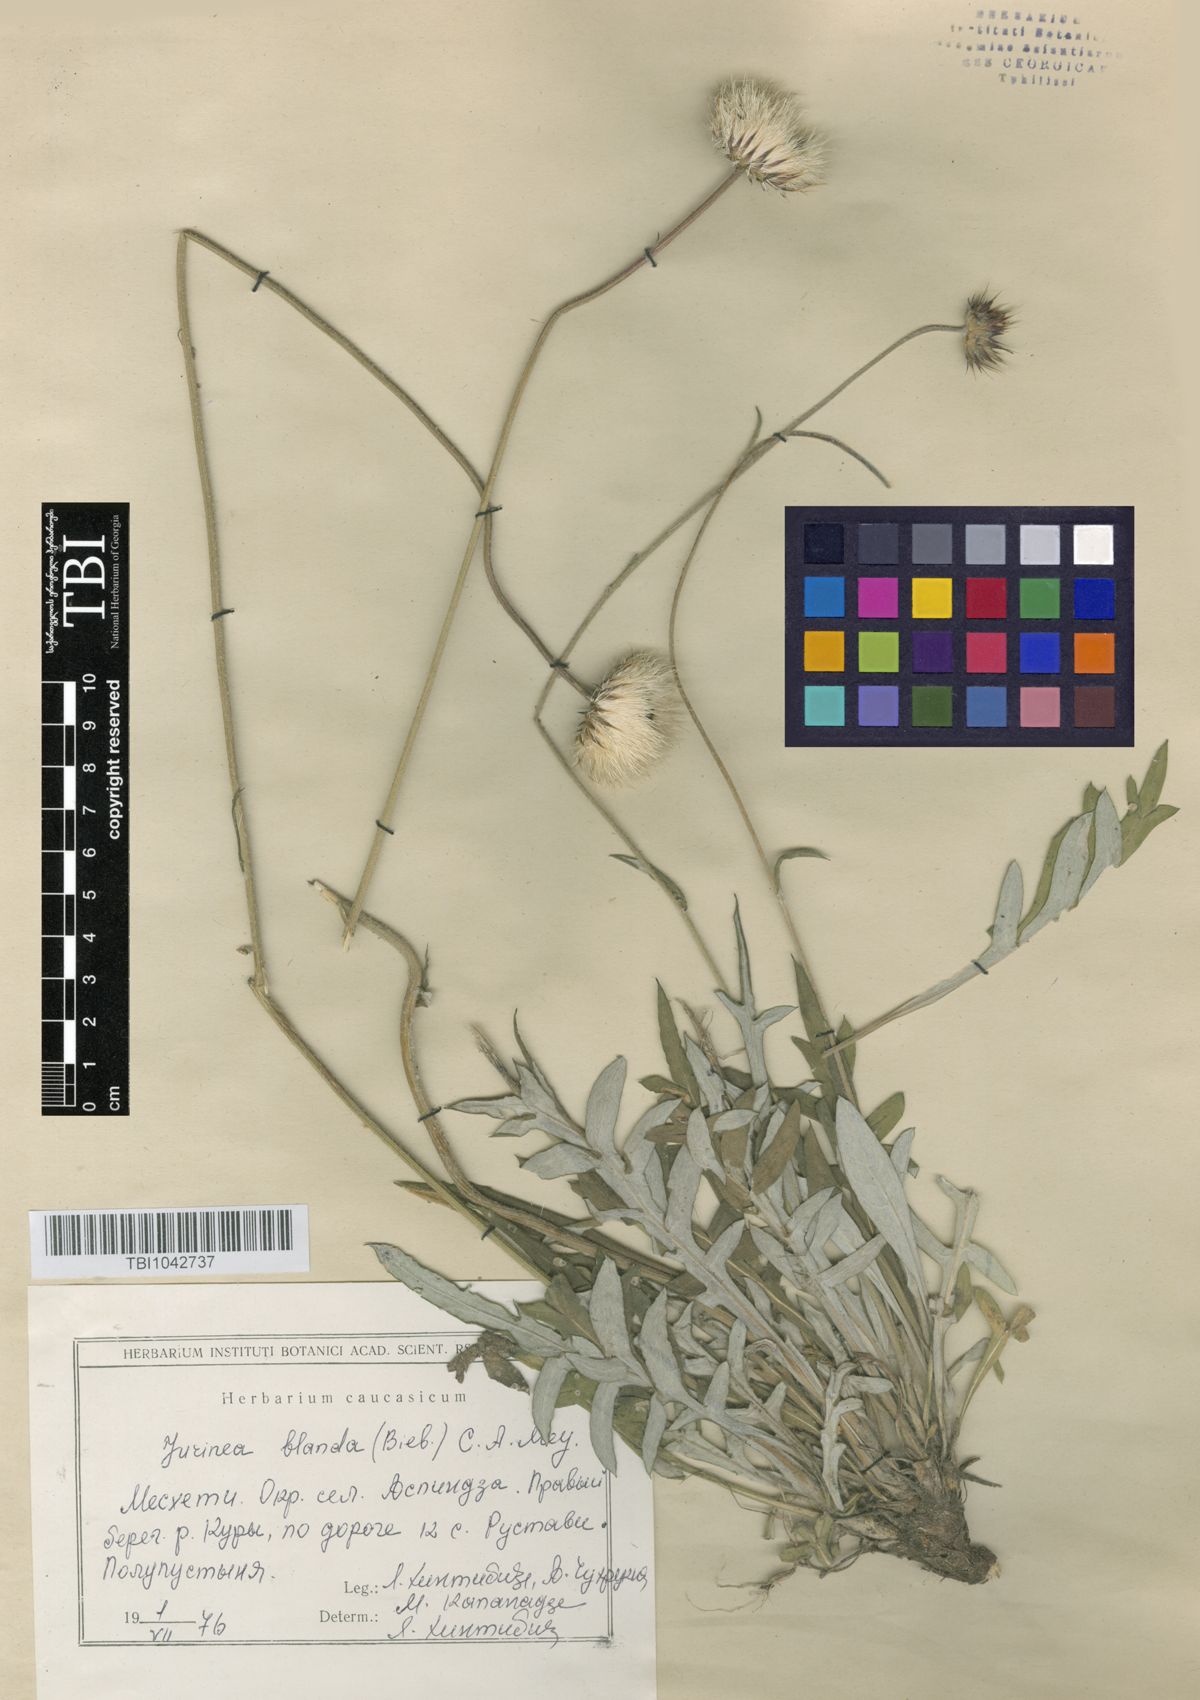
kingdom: Plantae
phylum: Tracheophyta
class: Magnoliopsida
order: Asterales
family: Asteraceae
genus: Jurinea
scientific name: Jurinea blanda
